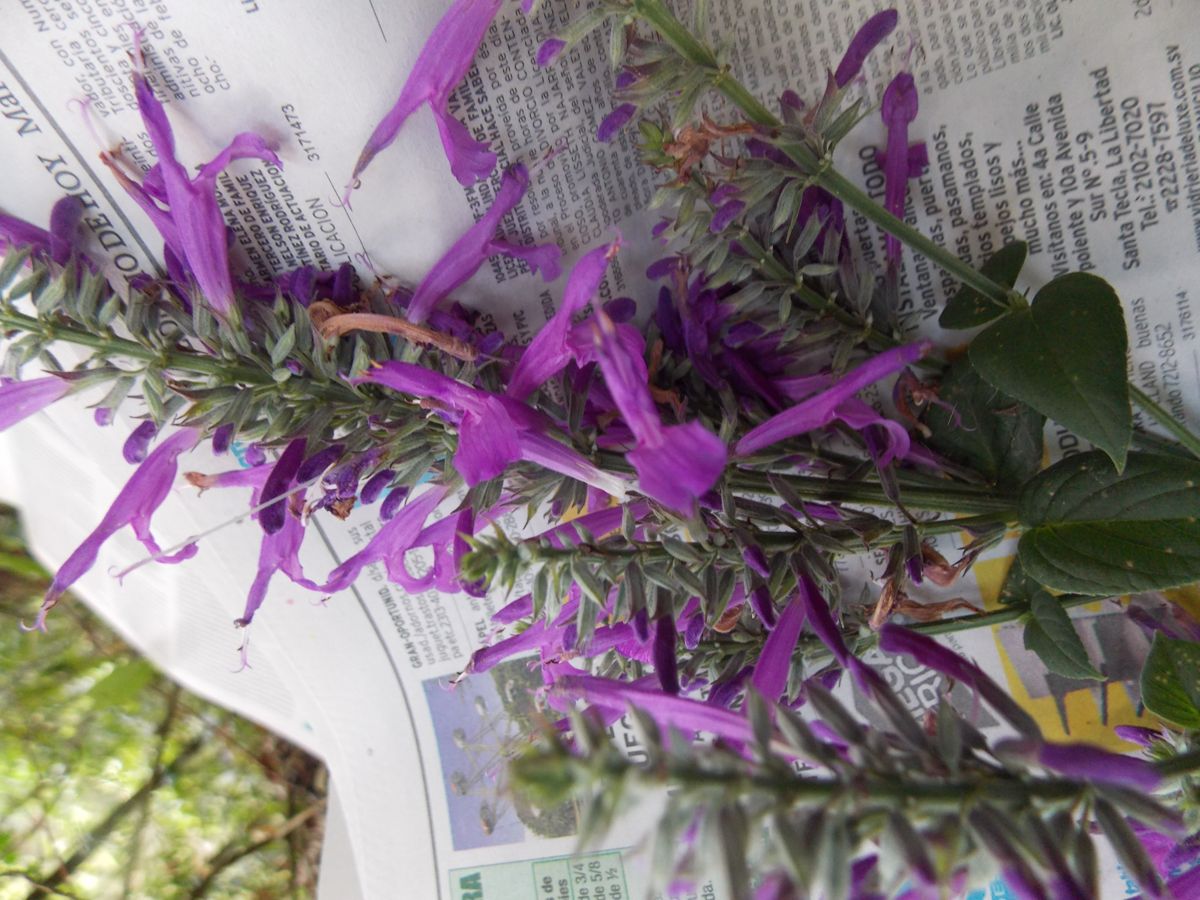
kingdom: Plantae
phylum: Tracheophyta
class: Magnoliopsida
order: Lamiales
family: Lamiaceae
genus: Salvia
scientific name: Salvia kellermanii
